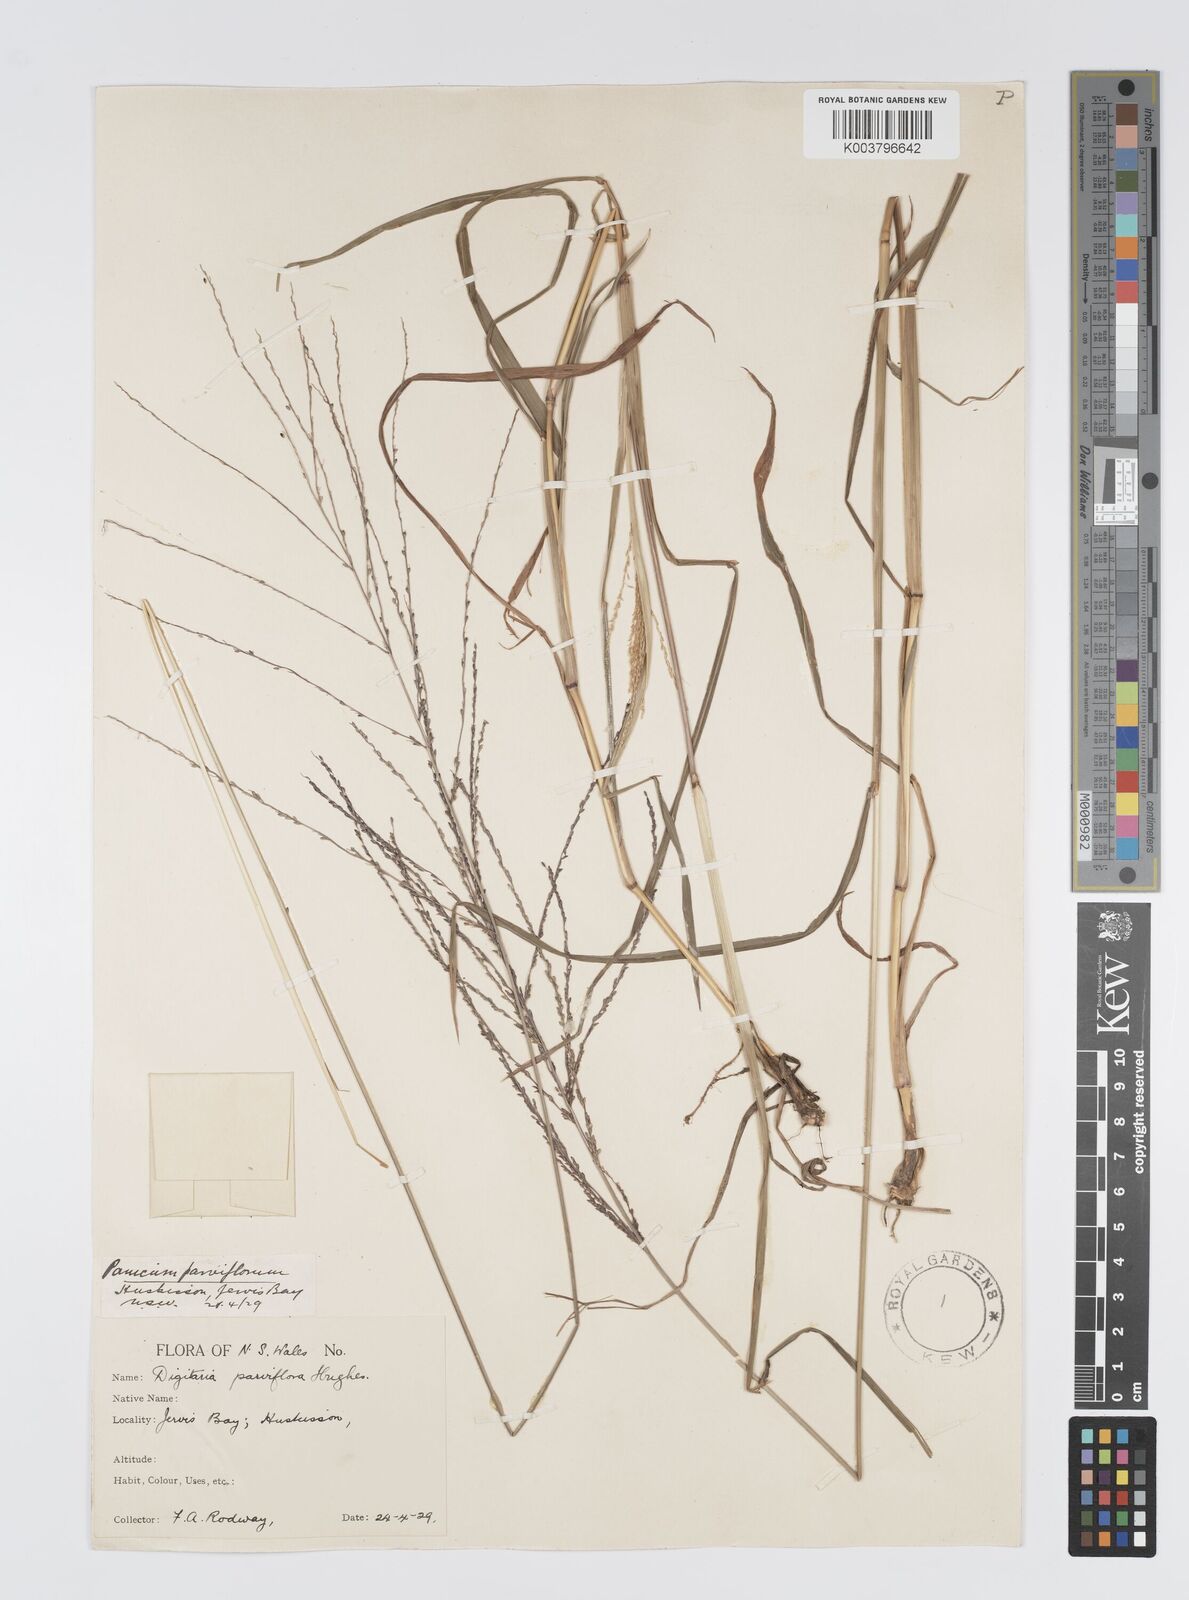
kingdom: Plantae
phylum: Tracheophyta
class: Liliopsida
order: Poales
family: Poaceae
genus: Digitaria
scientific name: Digitaria parviflora
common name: Small-flower finger grass
